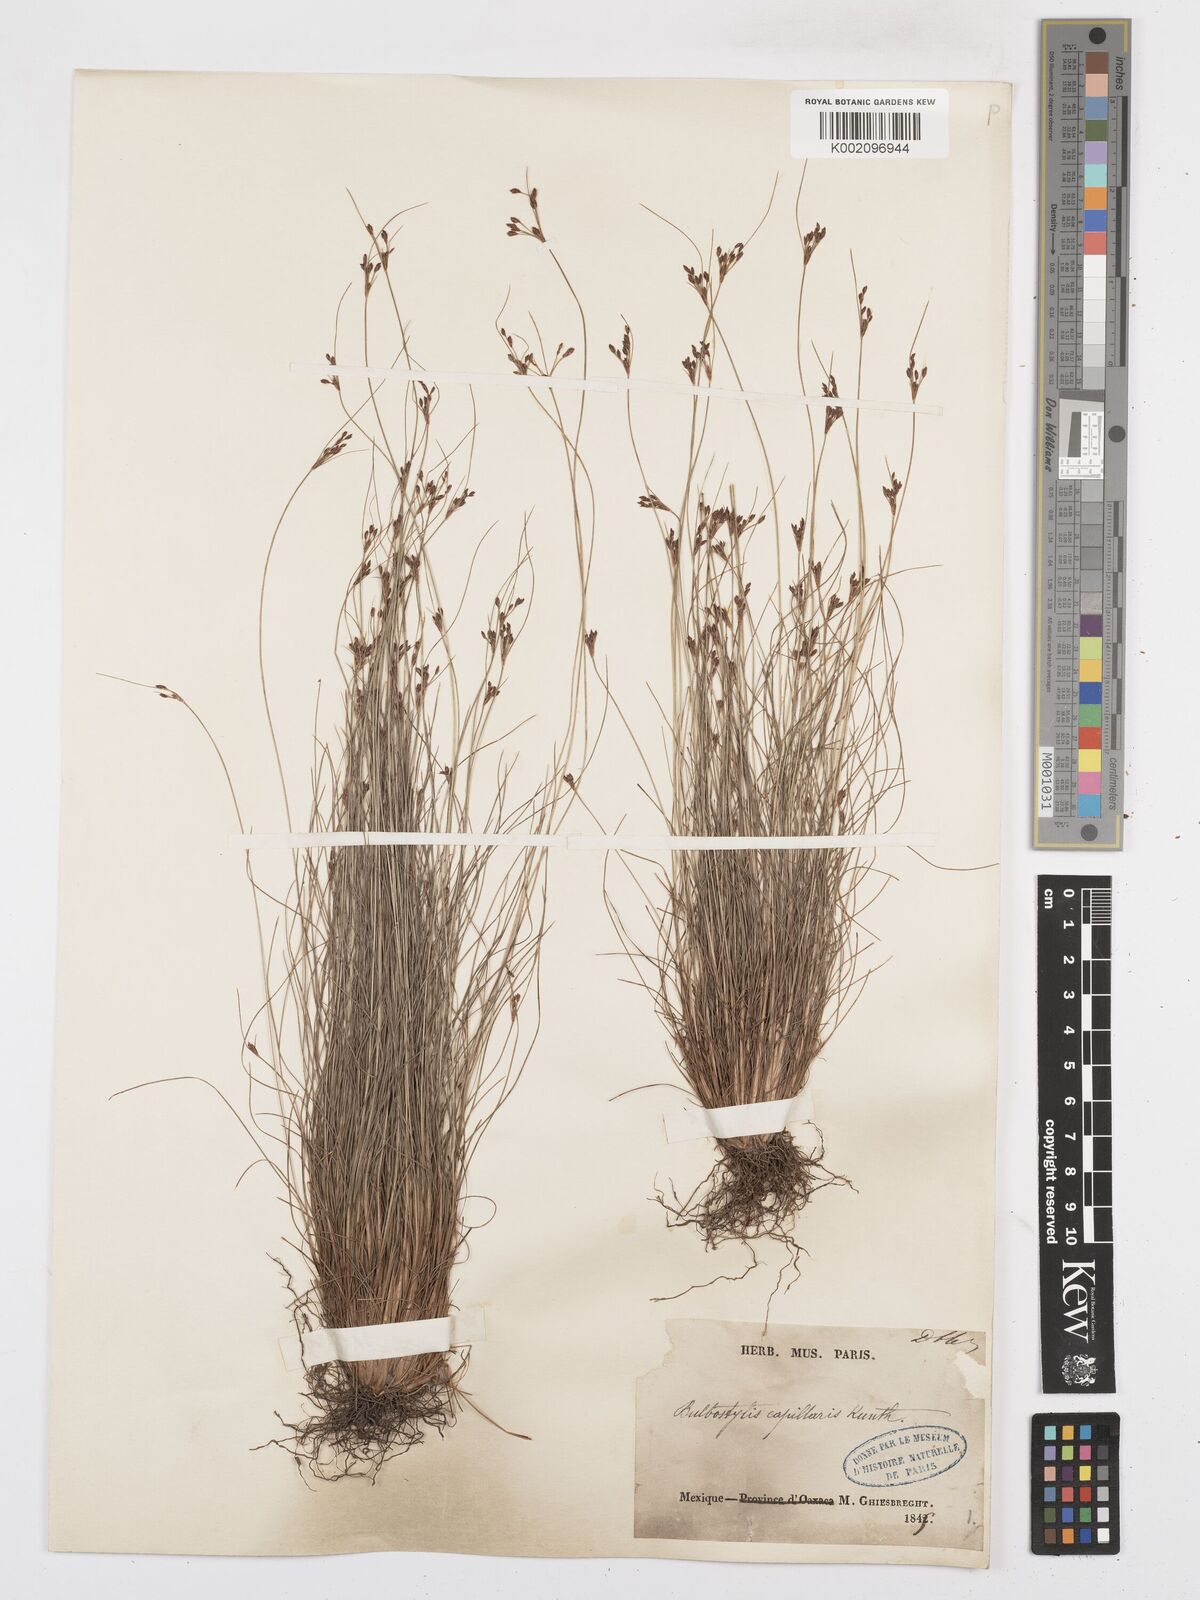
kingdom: Plantae
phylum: Tracheophyta
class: Liliopsida
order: Poales
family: Cyperaceae
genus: Bulbostylis
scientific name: Bulbostylis capillaris
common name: Densetuft hairsedge
